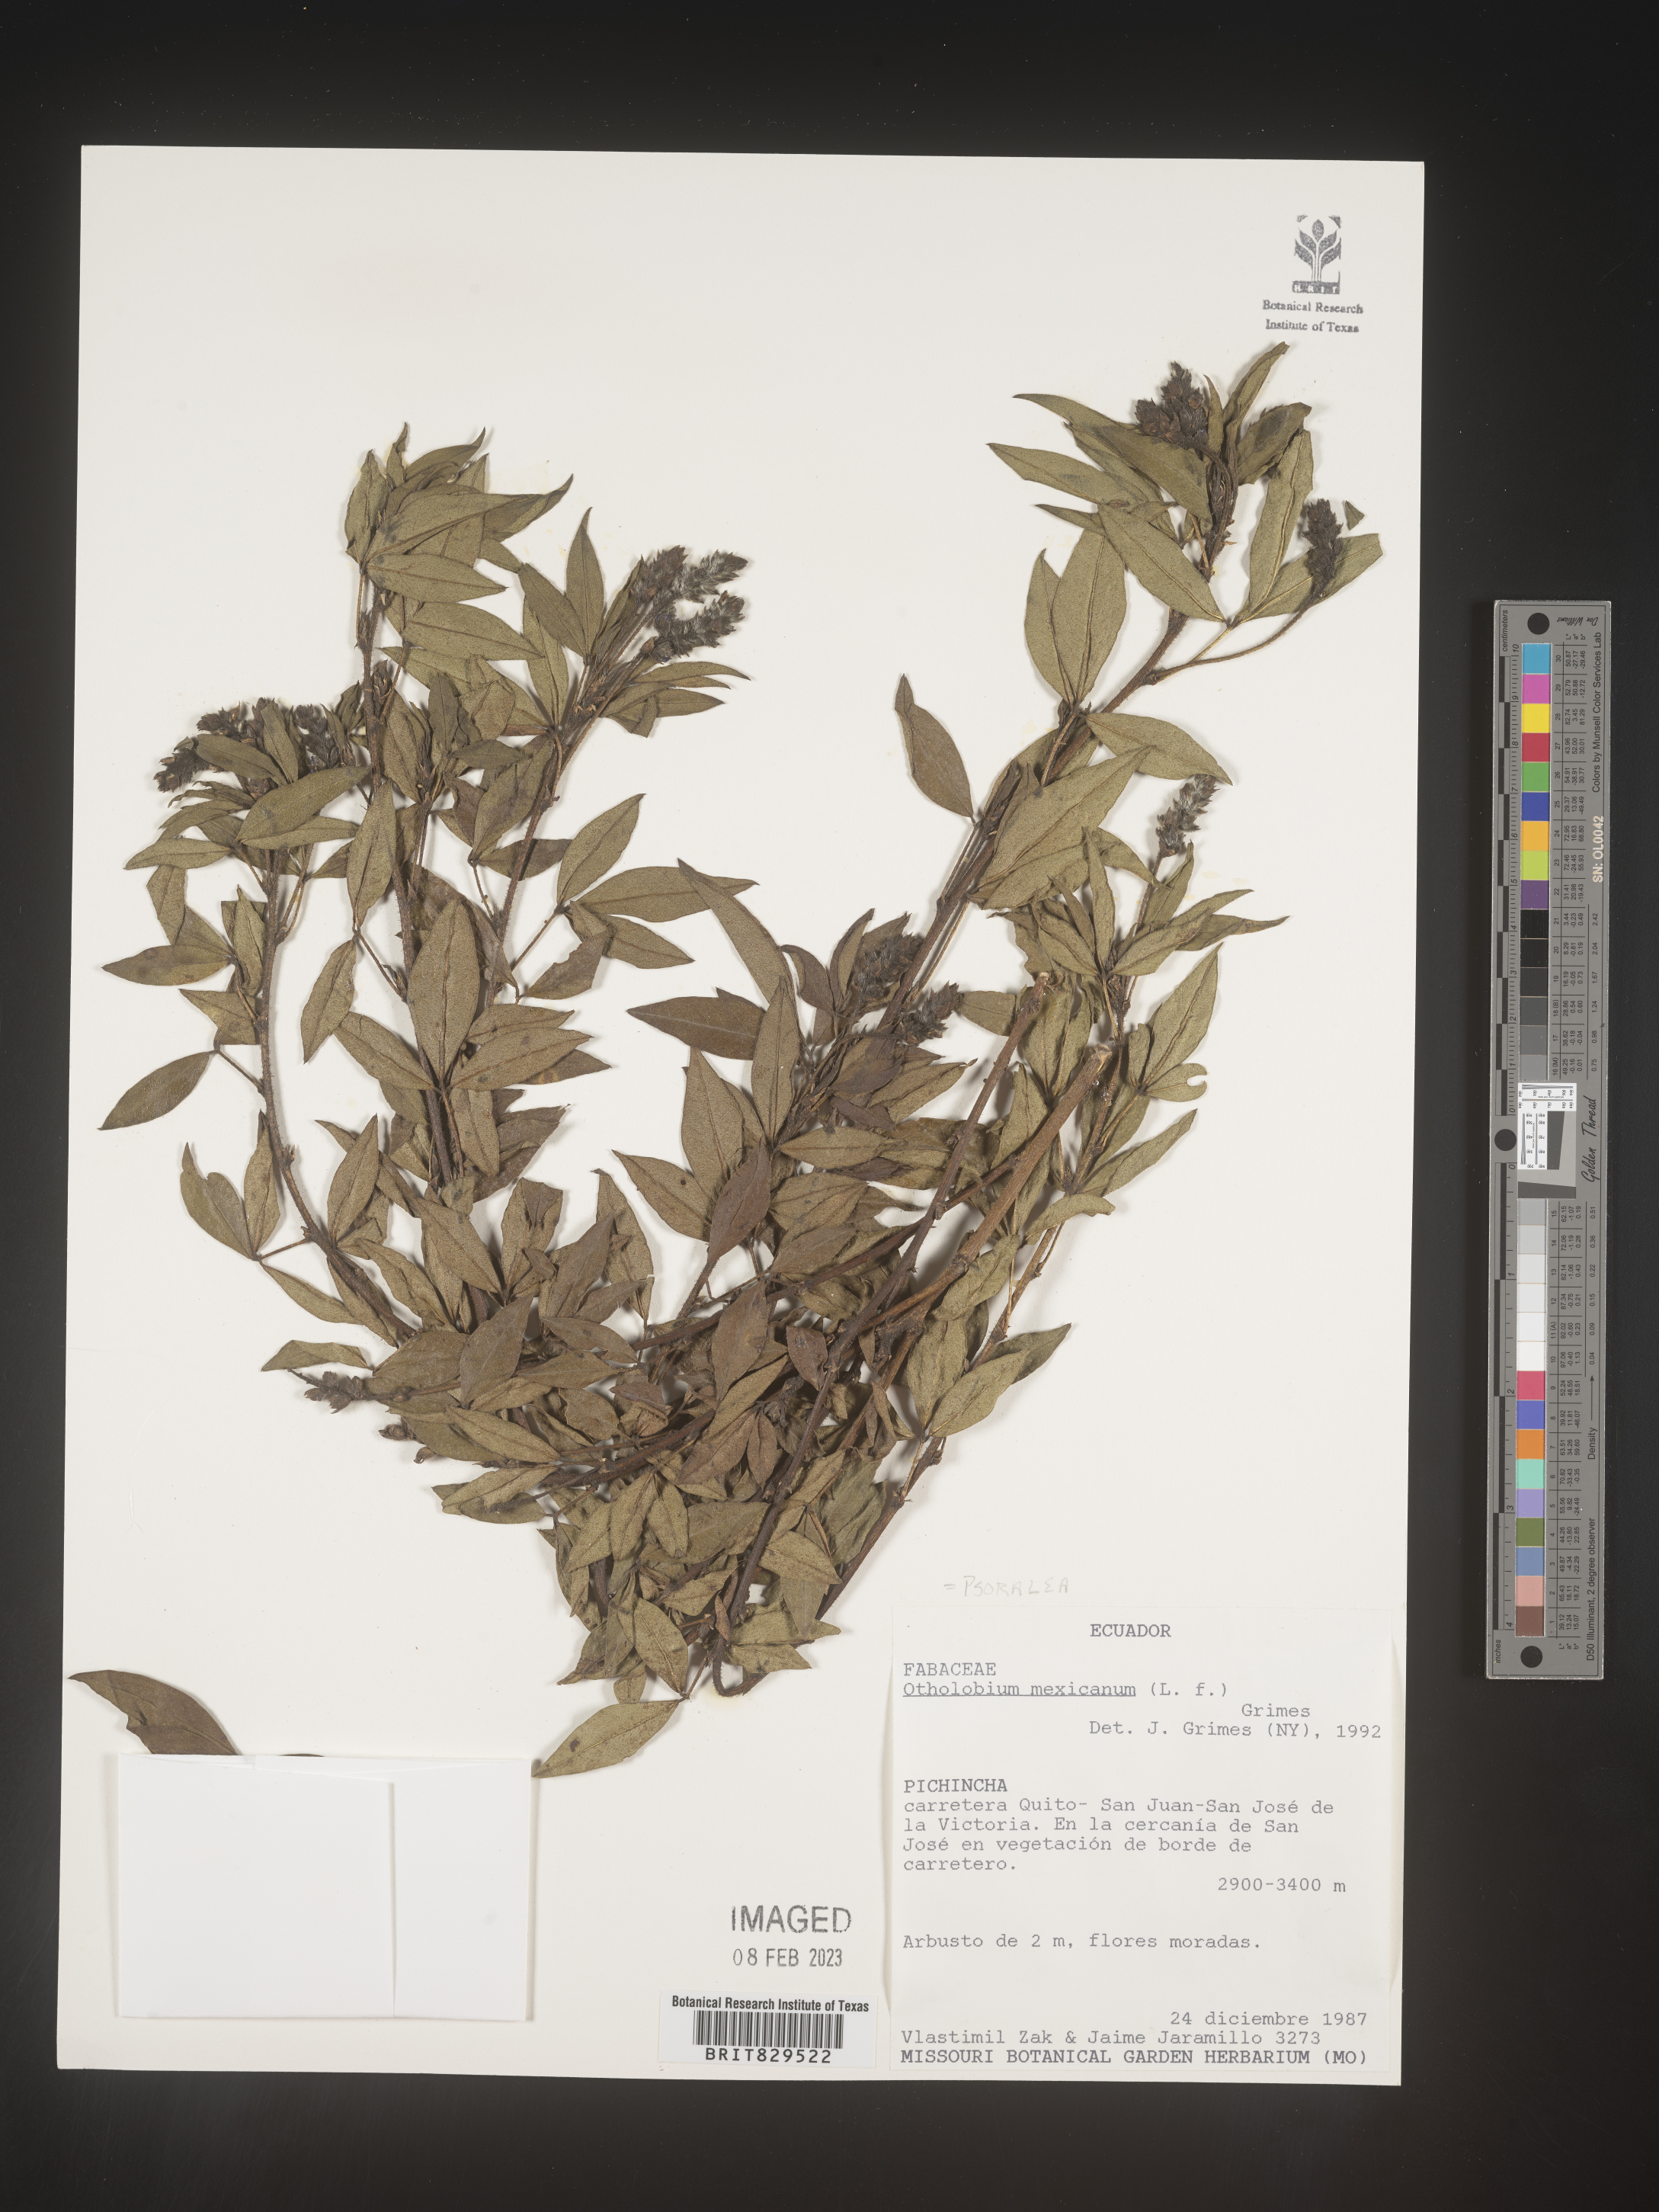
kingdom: Plantae
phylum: Tracheophyta
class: Magnoliopsida
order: Fabales
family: Fabaceae
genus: Psoralea
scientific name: Psoralea
